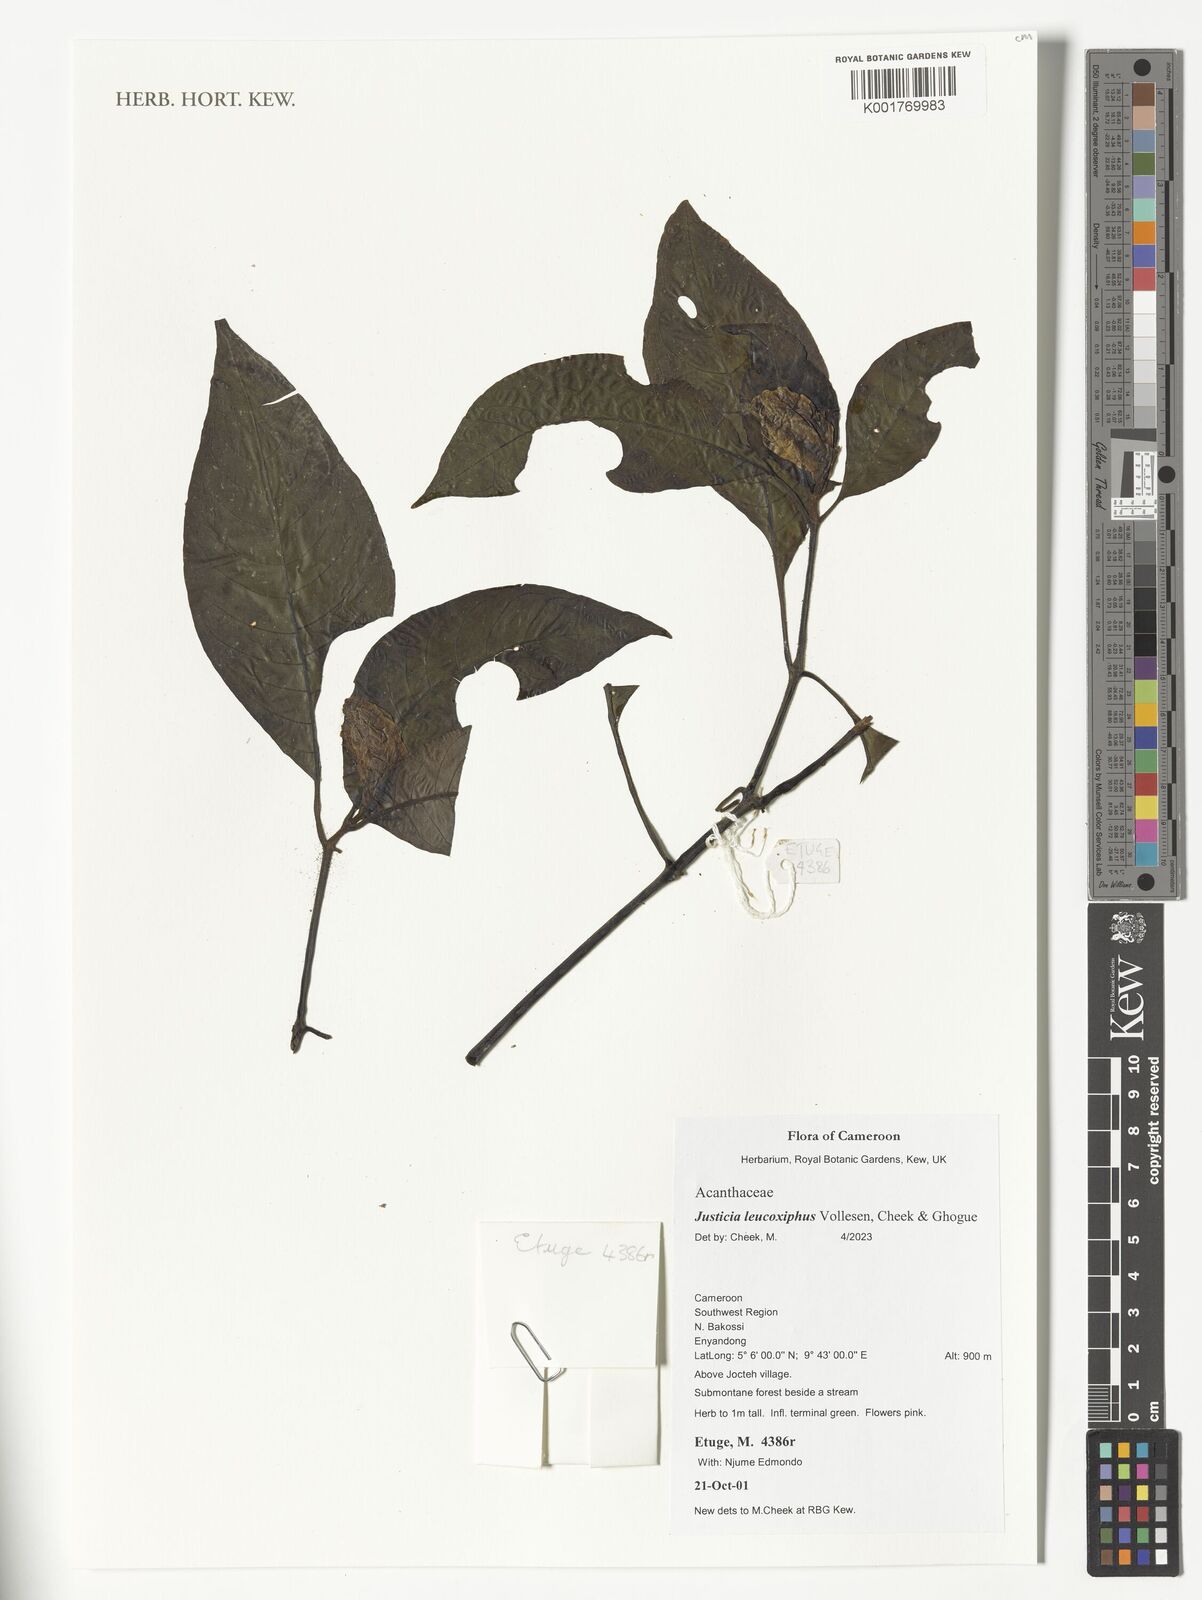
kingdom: Plantae
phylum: Tracheophyta
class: Magnoliopsida
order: Lamiales
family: Acanthaceae
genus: Justicia
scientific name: Justicia leucoxiphus
